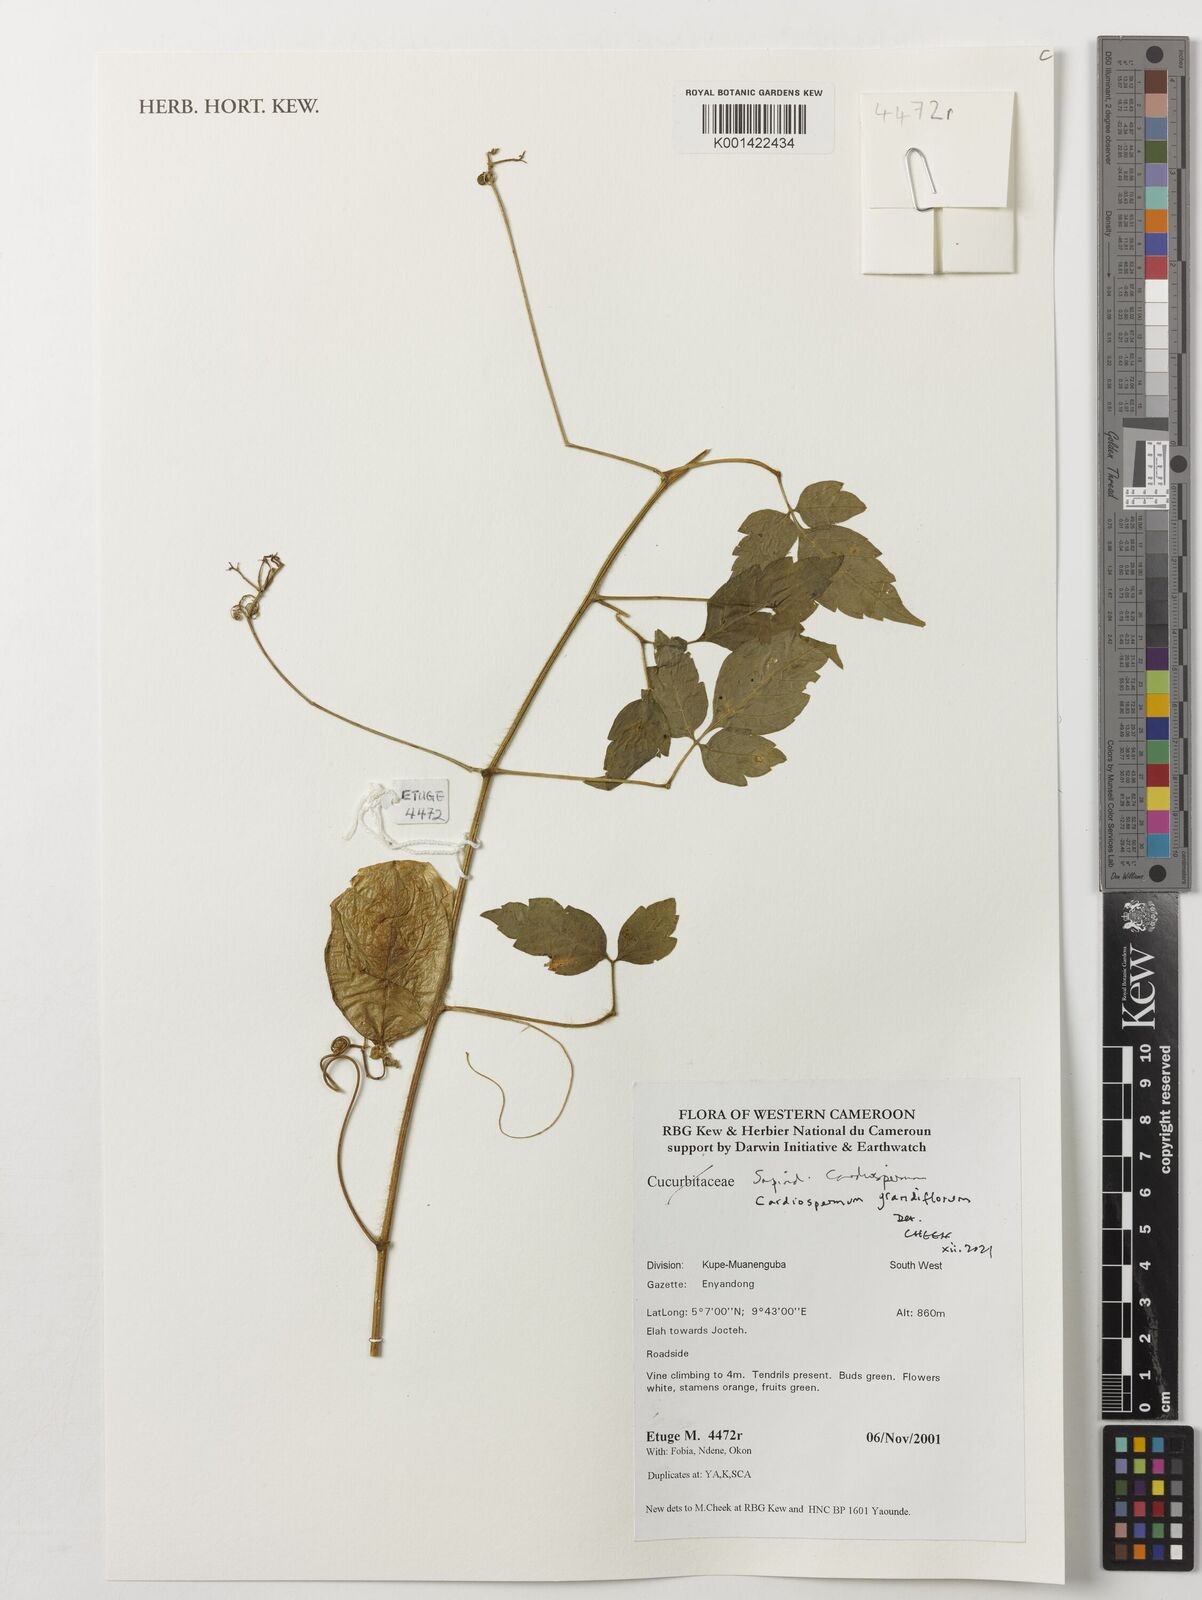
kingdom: Plantae
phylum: Tracheophyta
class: Magnoliopsida
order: Sapindales
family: Sapindaceae
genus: Cardiospermum
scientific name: Cardiospermum grandiflorum
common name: Balloon vine
